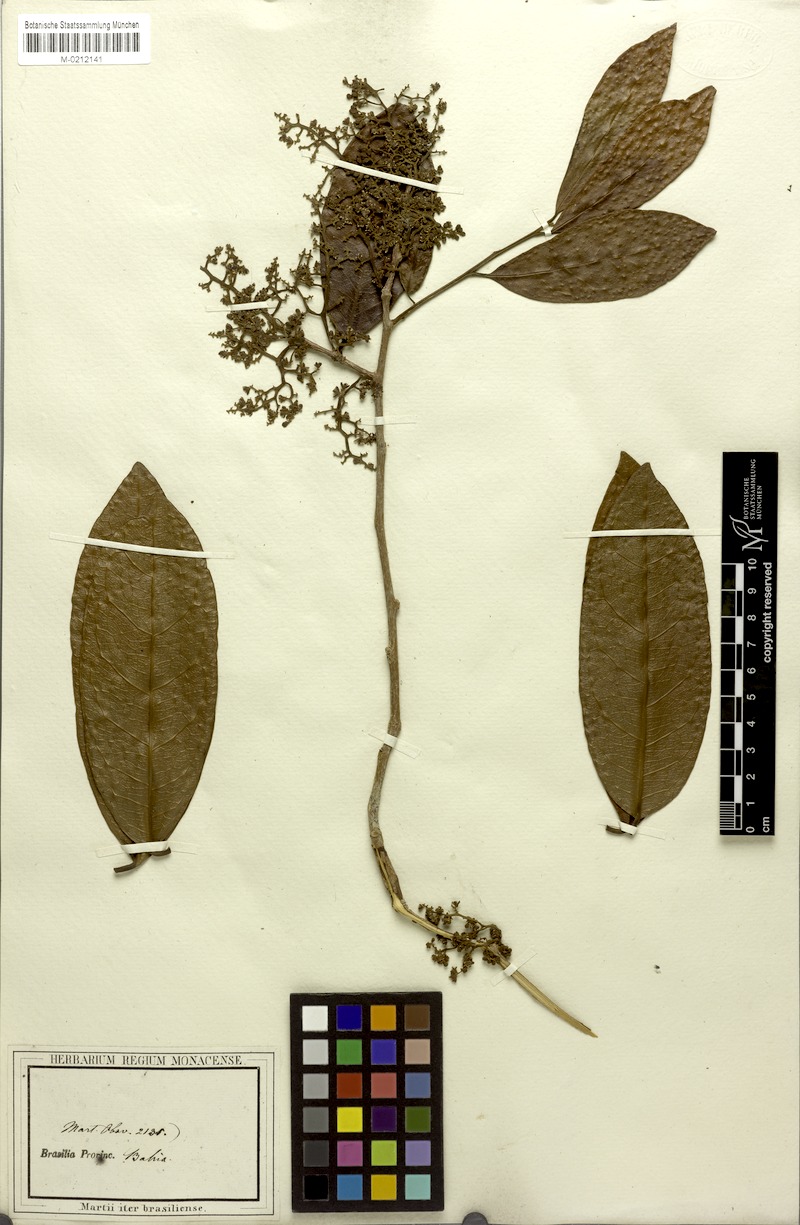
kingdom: Plantae
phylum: Tracheophyta
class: Magnoliopsida
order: Icacinales
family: Icacinaceae
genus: Leretia
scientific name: Leretia cordata
